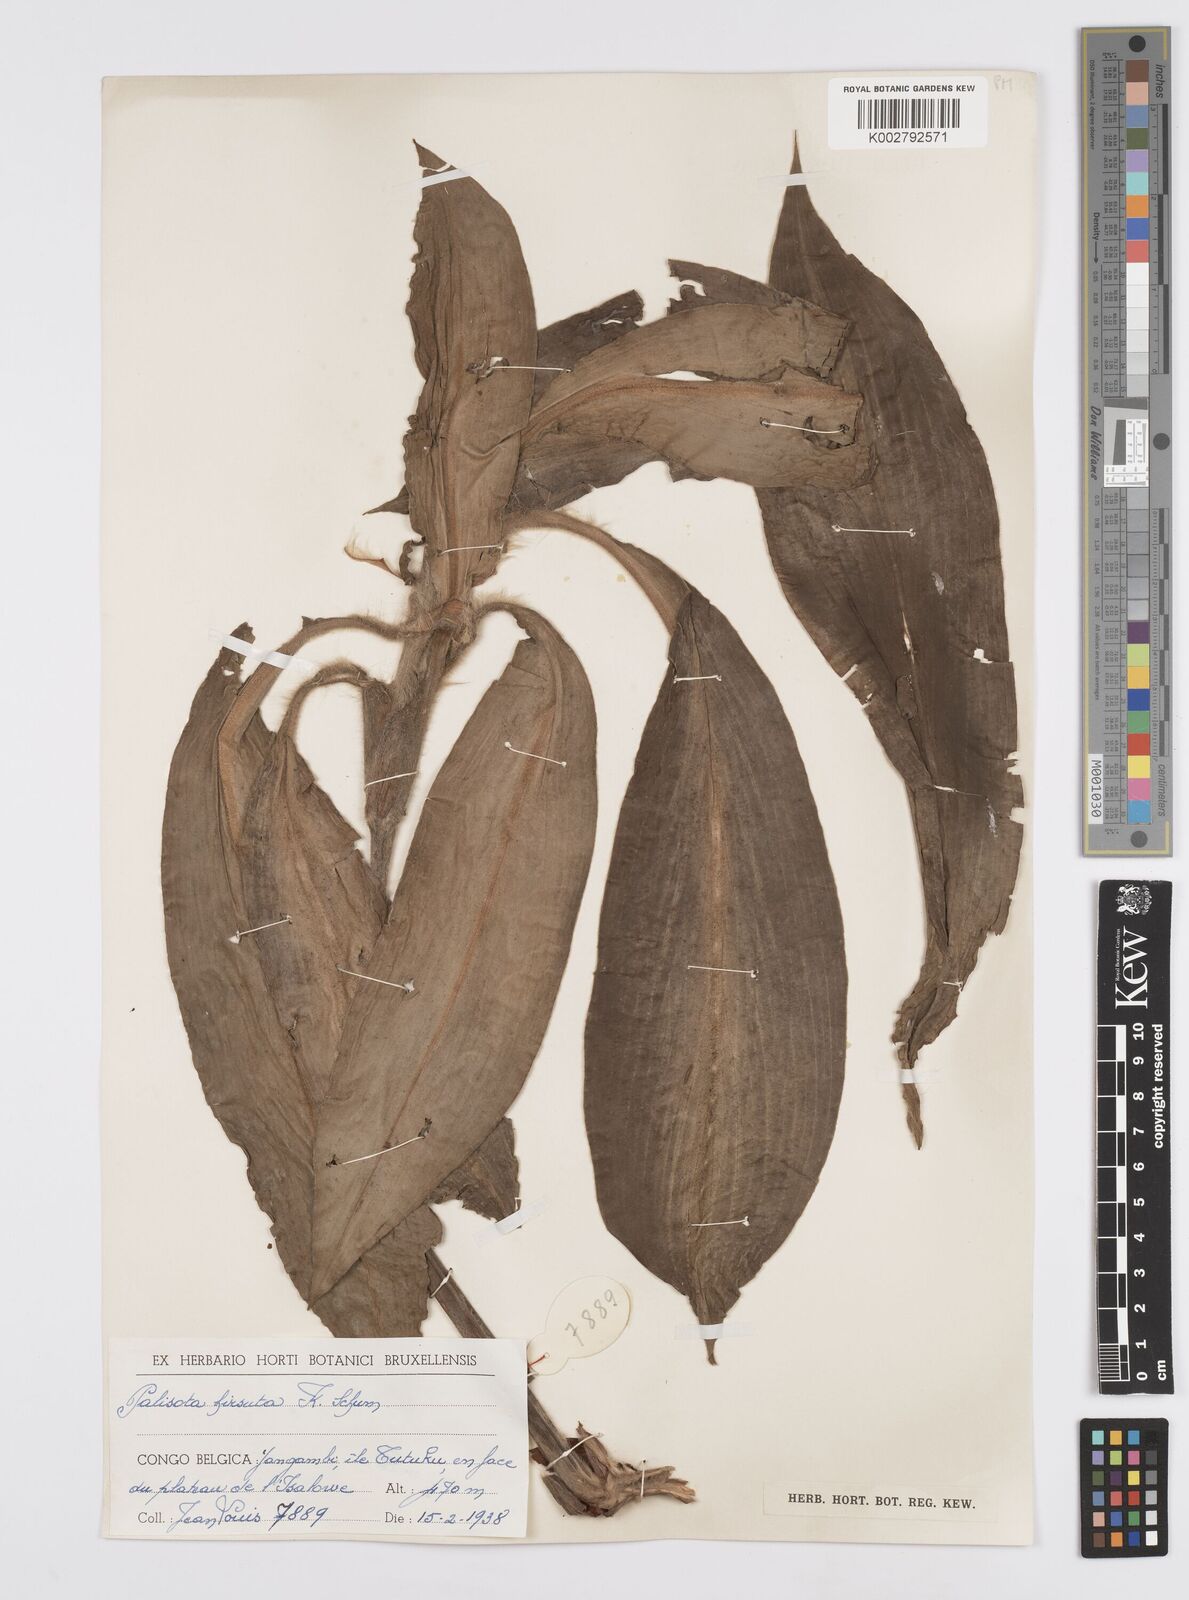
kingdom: Plantae
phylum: Tracheophyta
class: Liliopsida
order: Commelinales
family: Commelinaceae
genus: Palisota
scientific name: Palisota hirsuta
